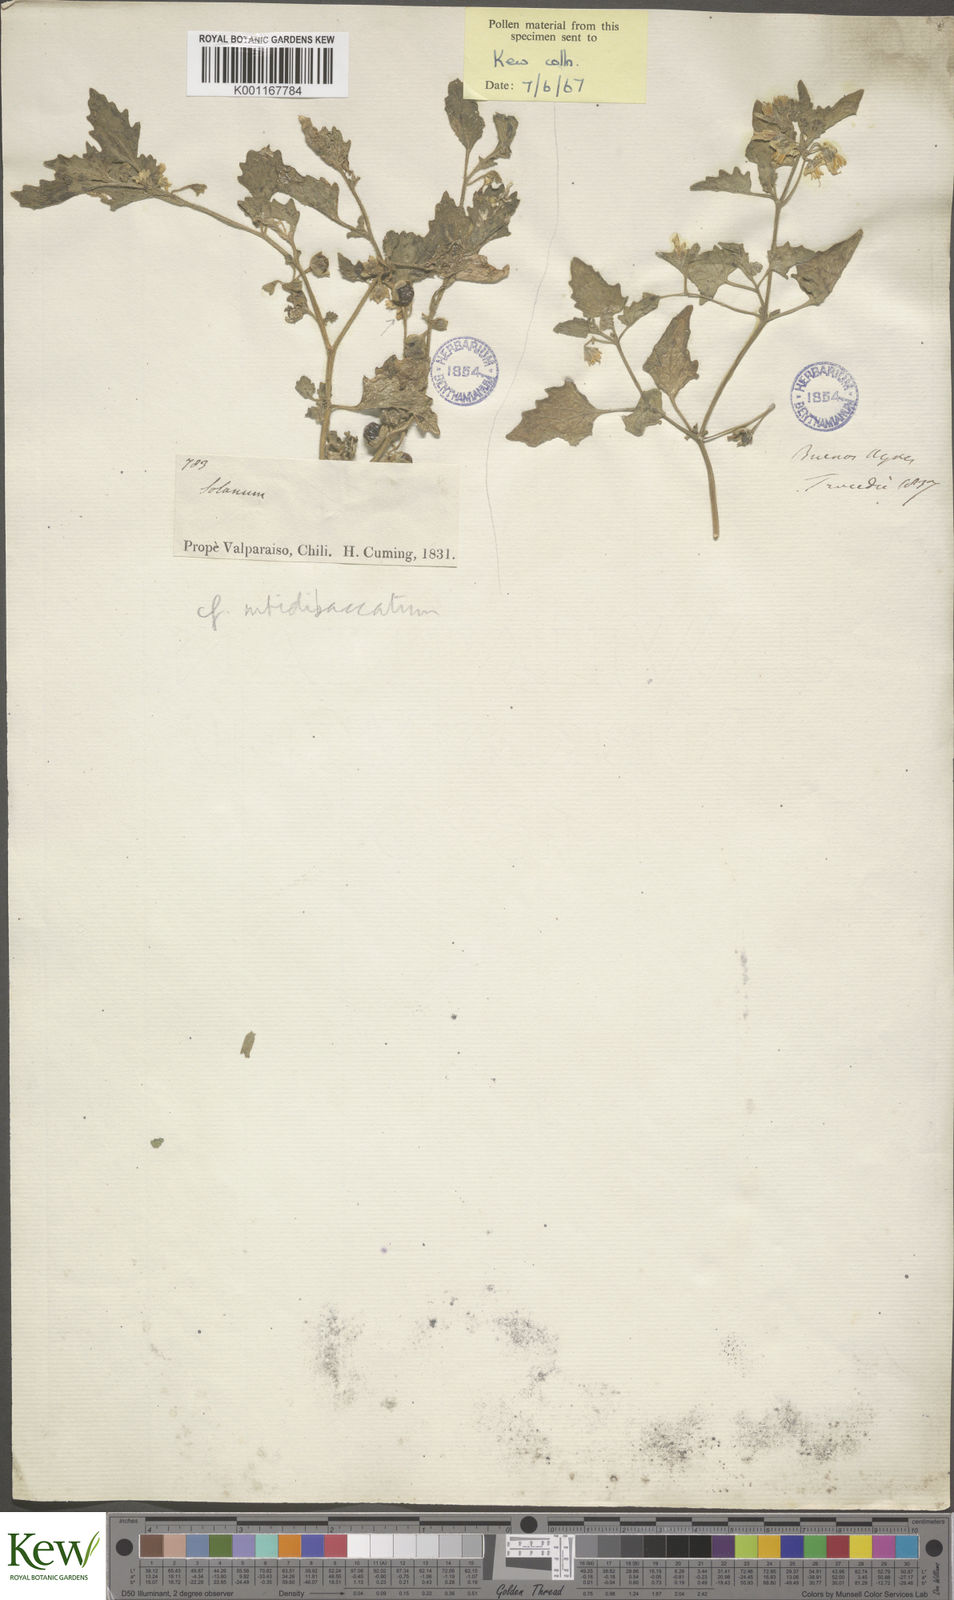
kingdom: Plantae
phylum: Tracheophyta
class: Magnoliopsida
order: Solanales
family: Solanaceae
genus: Solanum
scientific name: Solanum nitidibaccatum
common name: Hairy nightshade
